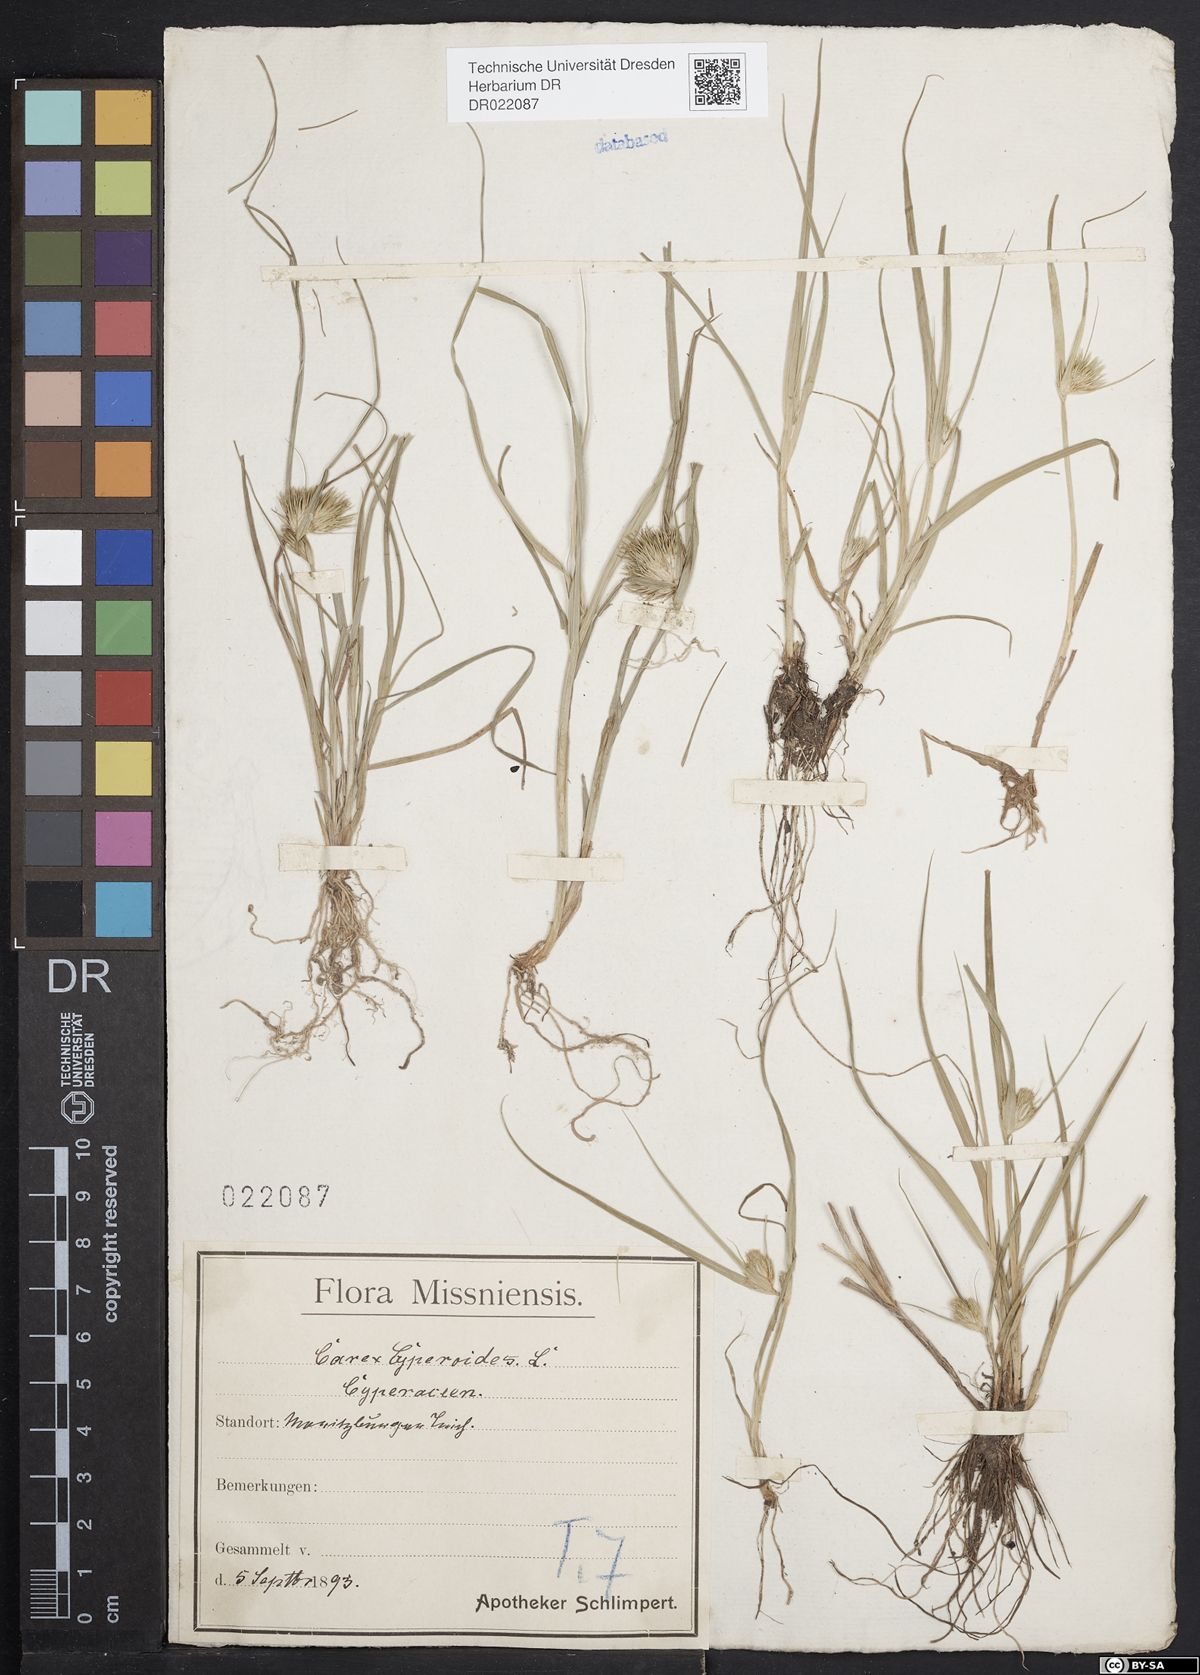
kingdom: Plantae
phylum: Tracheophyta
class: Liliopsida
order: Poales
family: Cyperaceae
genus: Carex
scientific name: Carex bohemica
